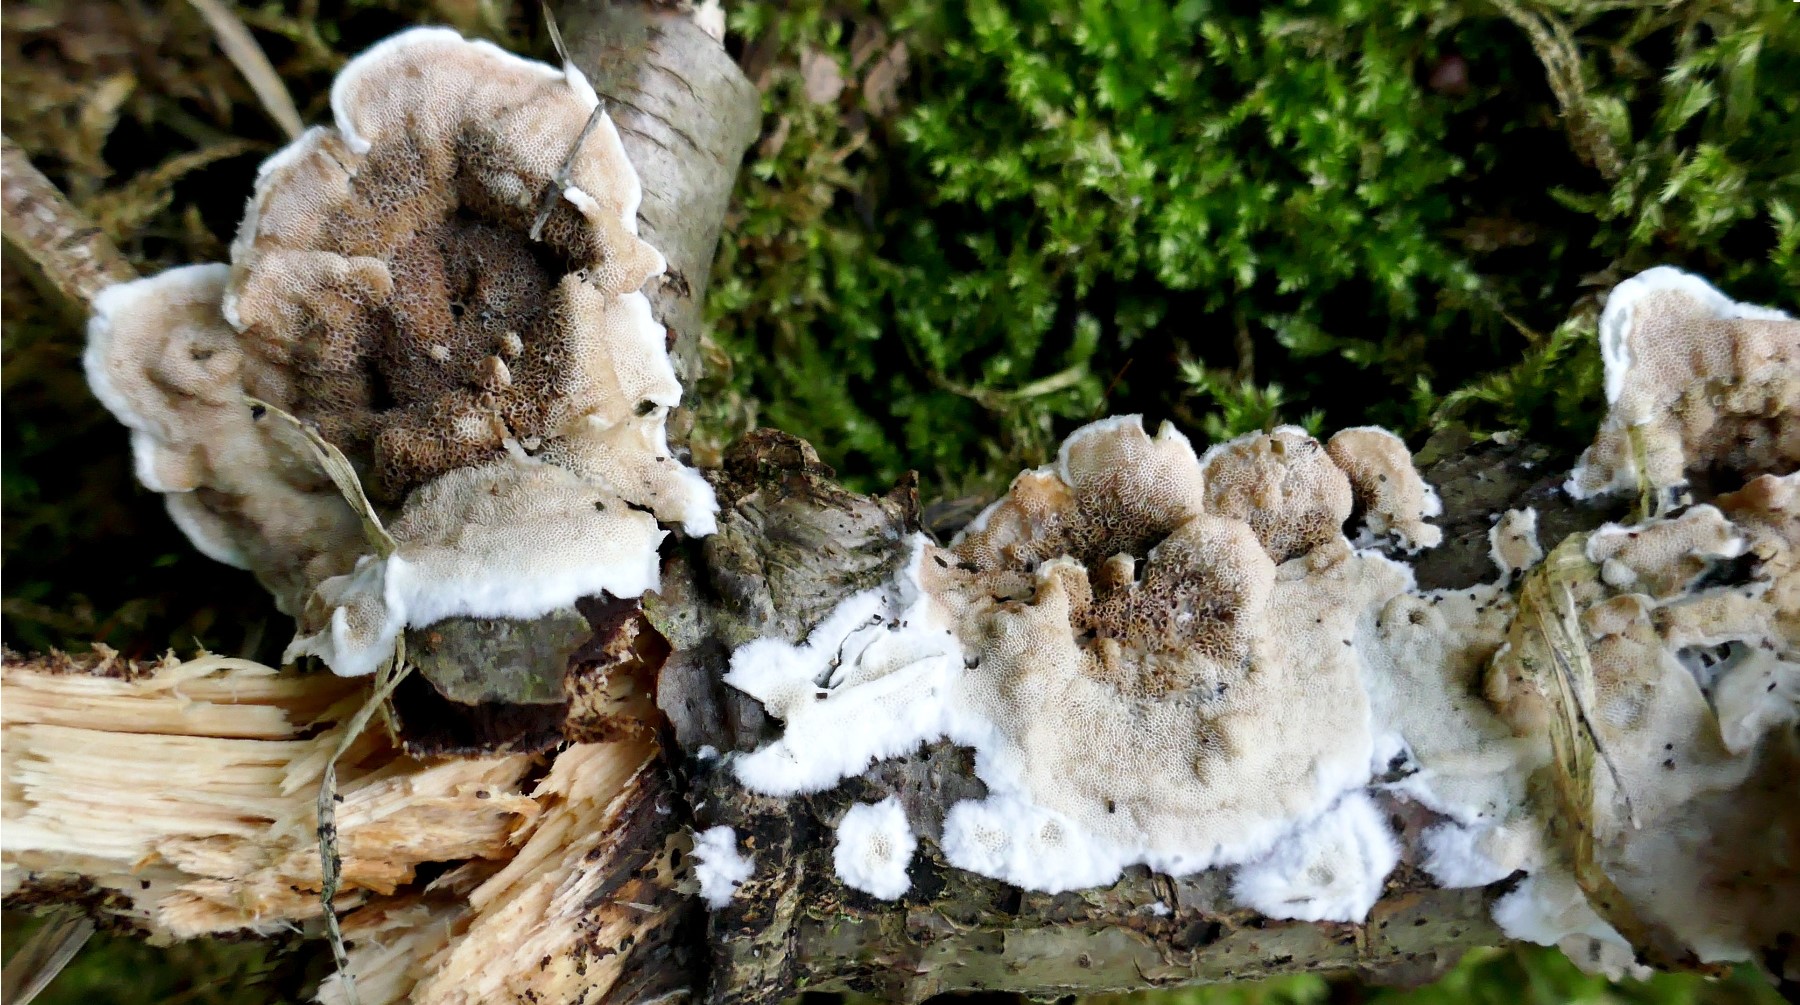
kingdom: Fungi
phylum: Basidiomycota
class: Agaricomycetes
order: Polyporales
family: Irpicaceae
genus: Vitreoporus
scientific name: Vitreoporus dichrous
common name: tofarvet foldporesvamp
